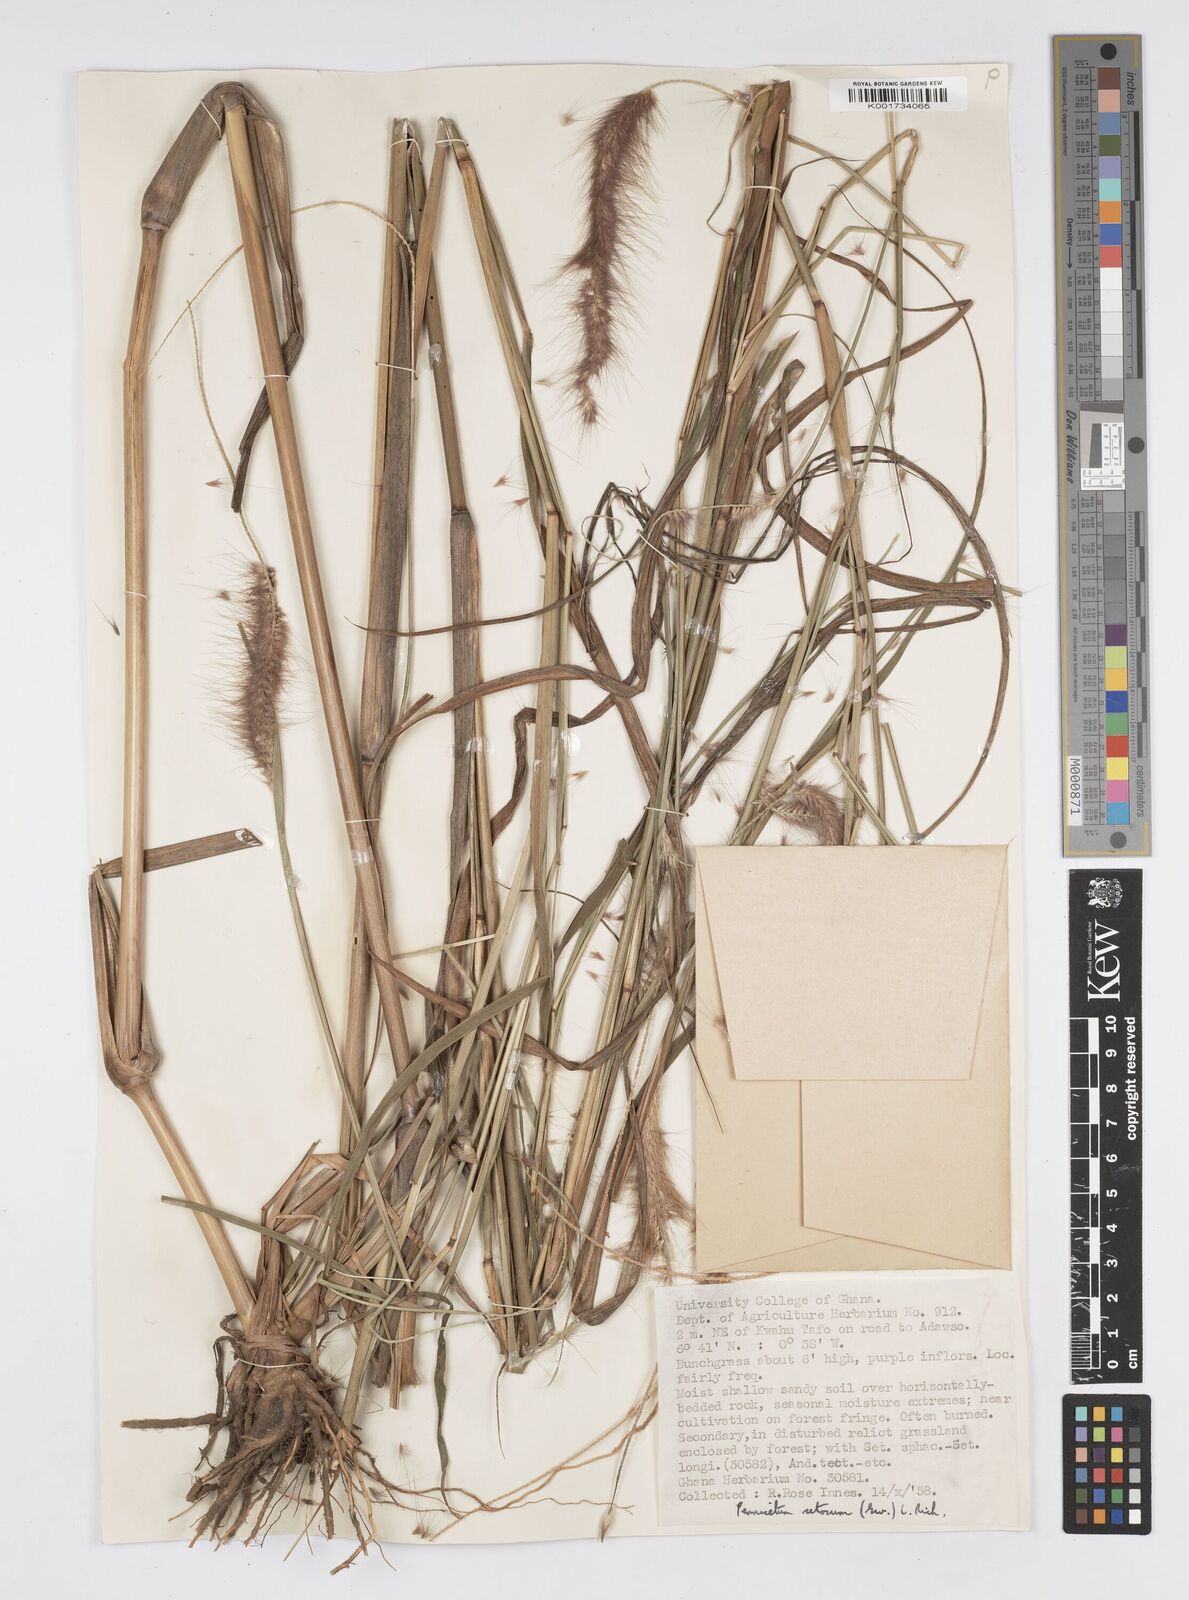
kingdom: Plantae
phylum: Tracheophyta
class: Liliopsida
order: Poales
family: Poaceae
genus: Setaria
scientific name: Setaria parviflora
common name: Knotroot bristle-grass
